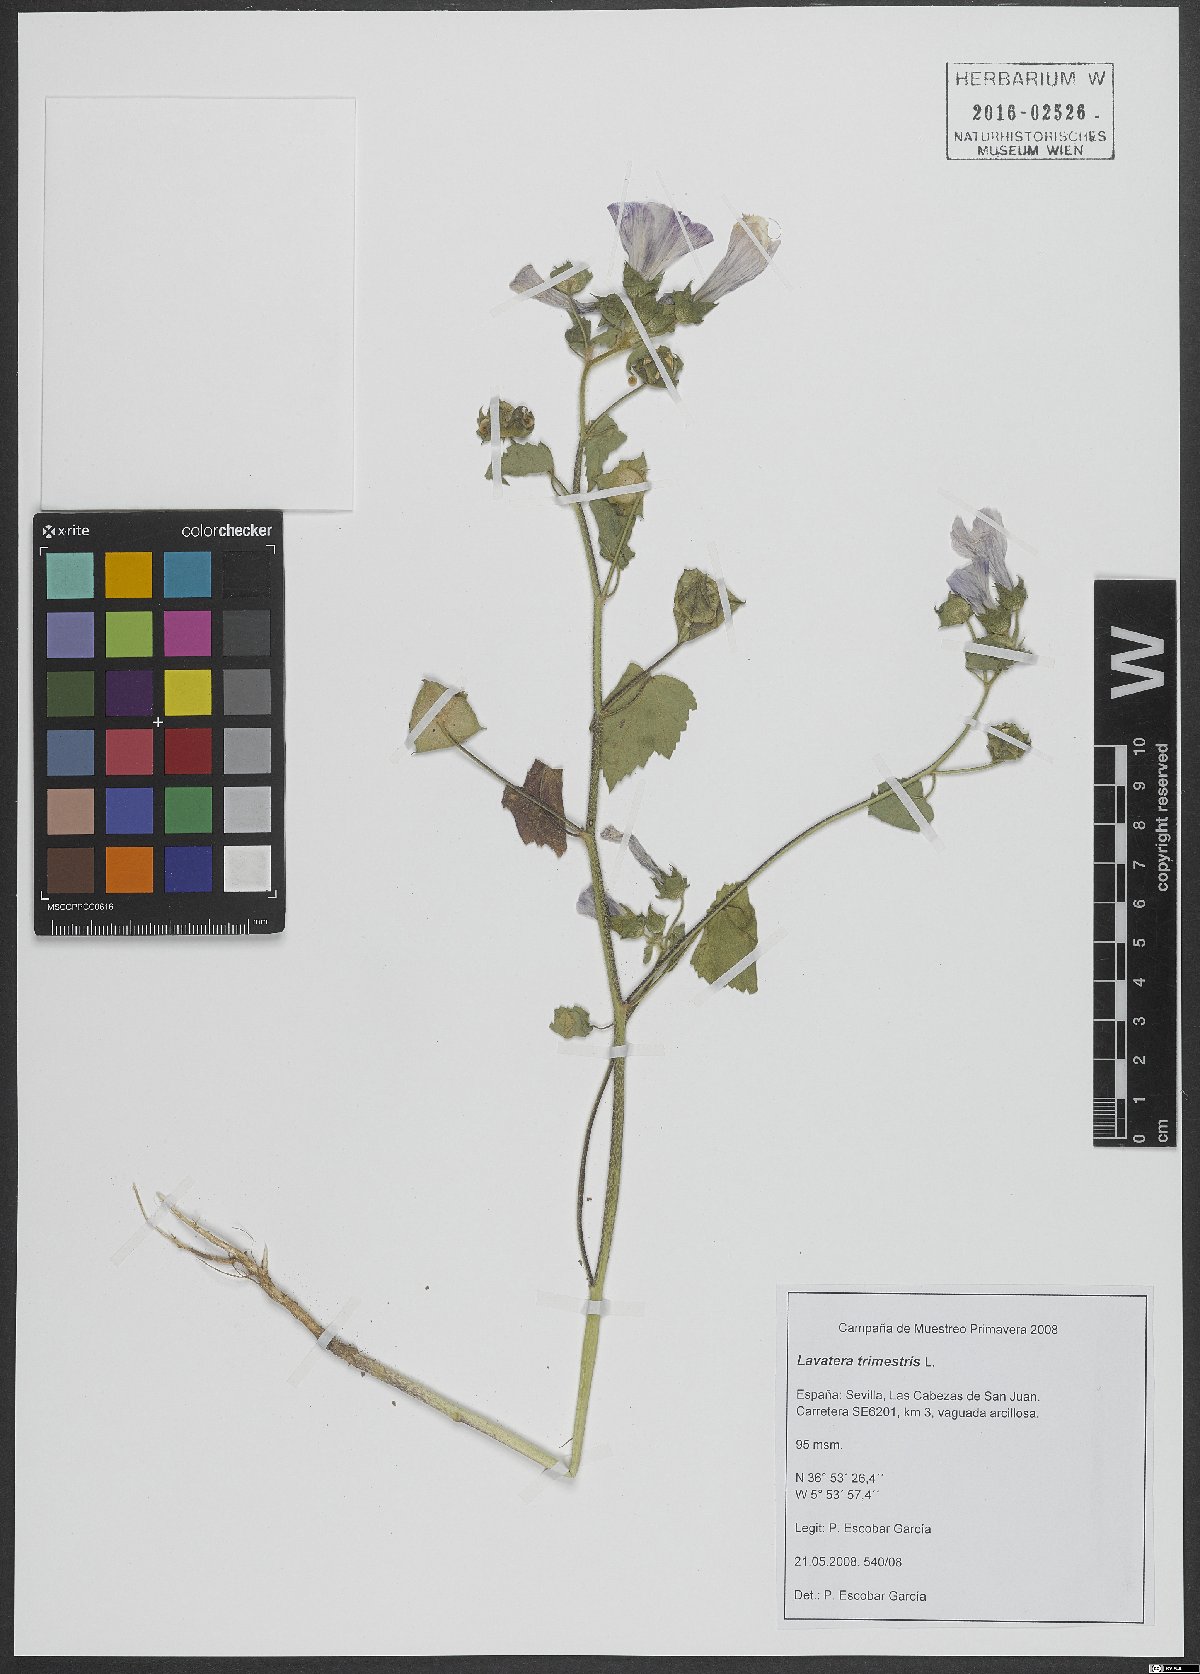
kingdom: Plantae
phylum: Tracheophyta
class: Magnoliopsida
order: Malvales
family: Malvaceae
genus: Malva
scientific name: Malva trimestris
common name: Royal mallow
